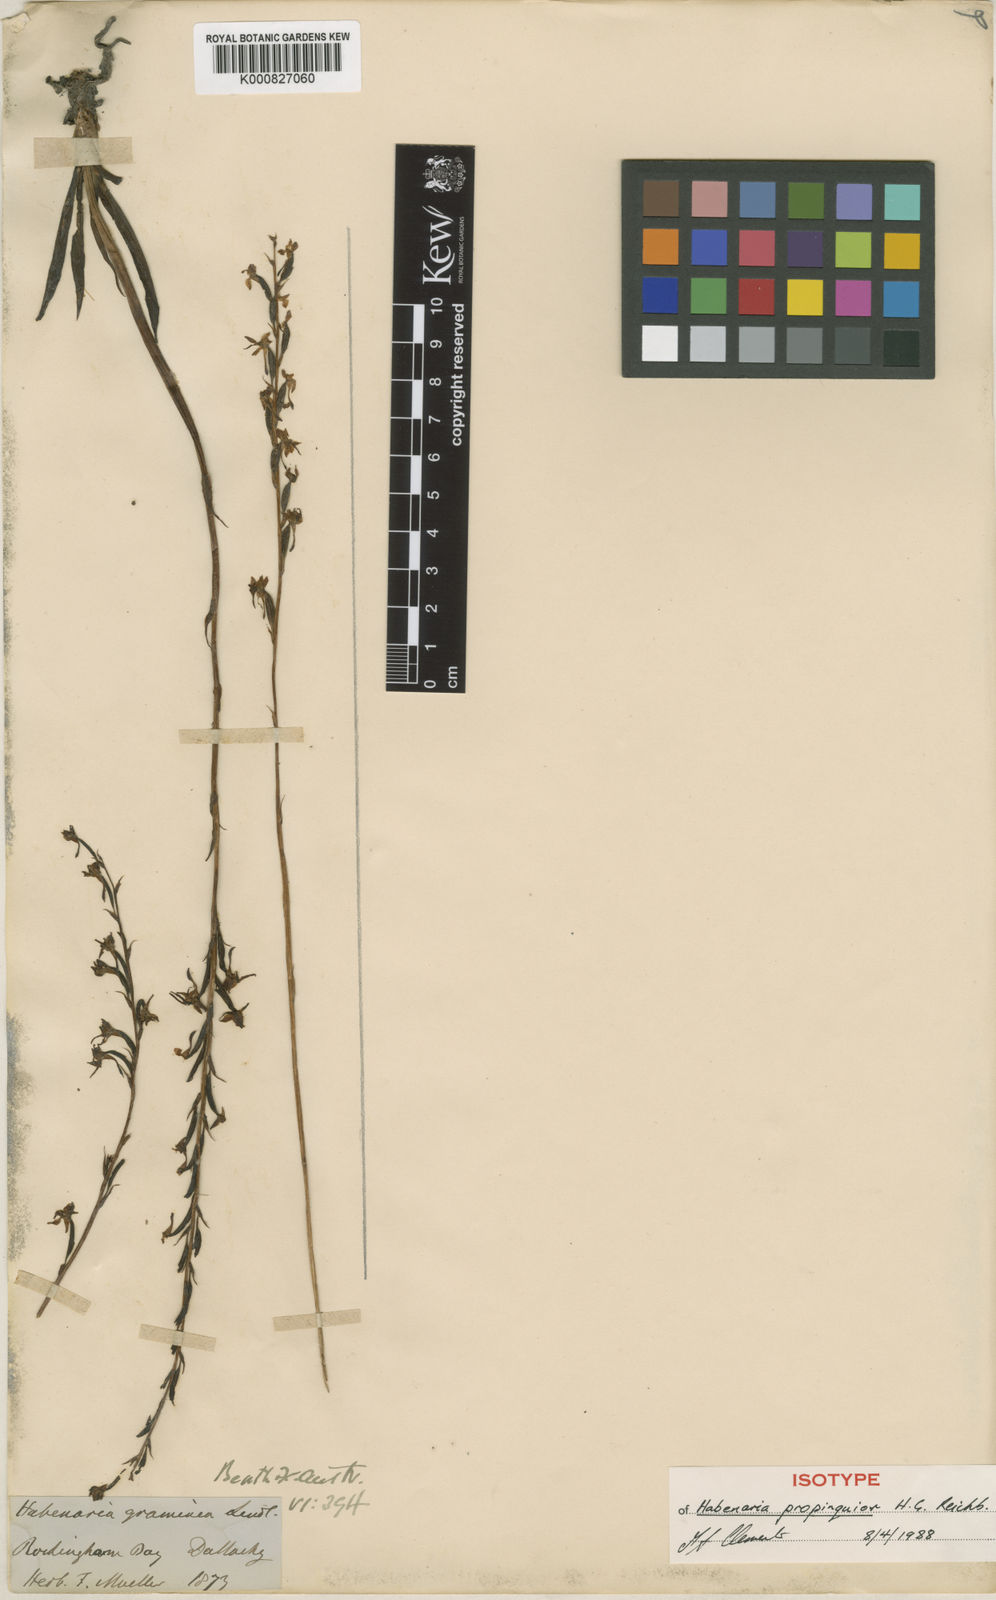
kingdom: Plantae
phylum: Tracheophyta
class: Liliopsida
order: Asparagales
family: Orchidaceae
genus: Habenaria
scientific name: Habenaria ochroleuca
